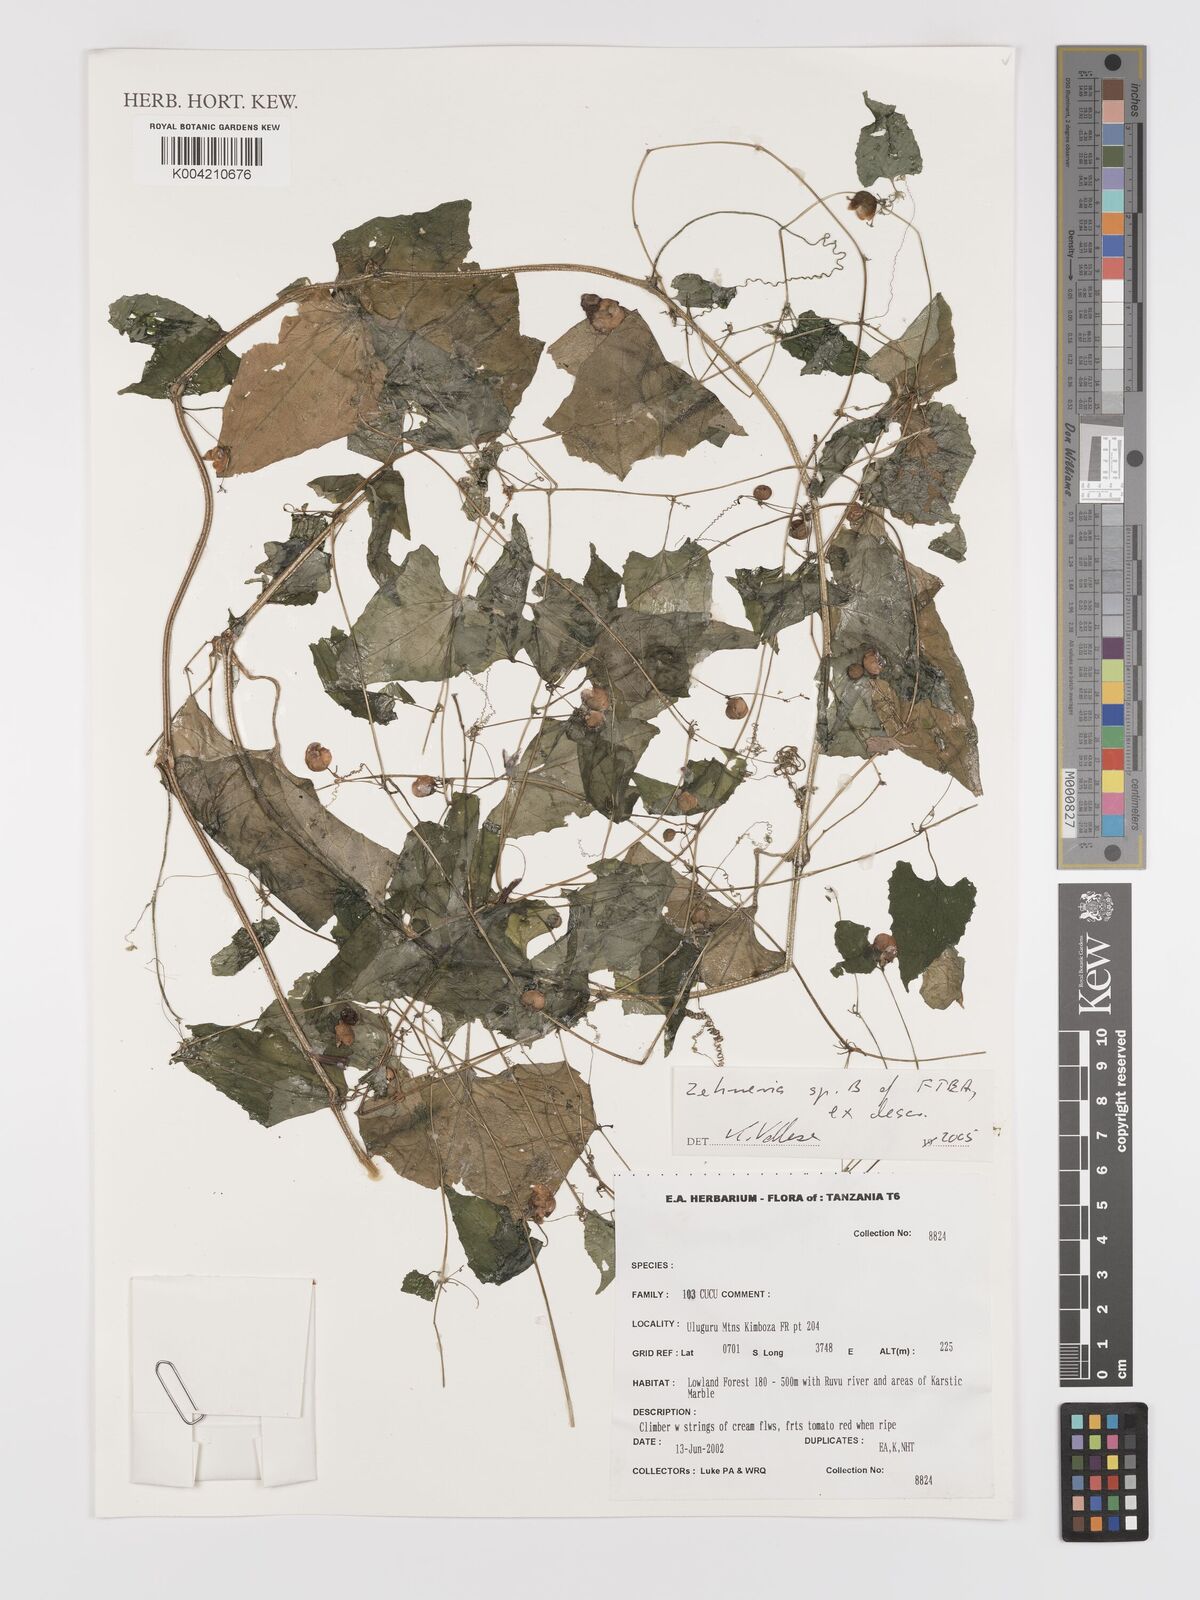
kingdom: Plantae
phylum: Tracheophyta
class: Magnoliopsida
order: Cucurbitales
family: Cucurbitaceae
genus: Zehneria
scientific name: Zehneria
